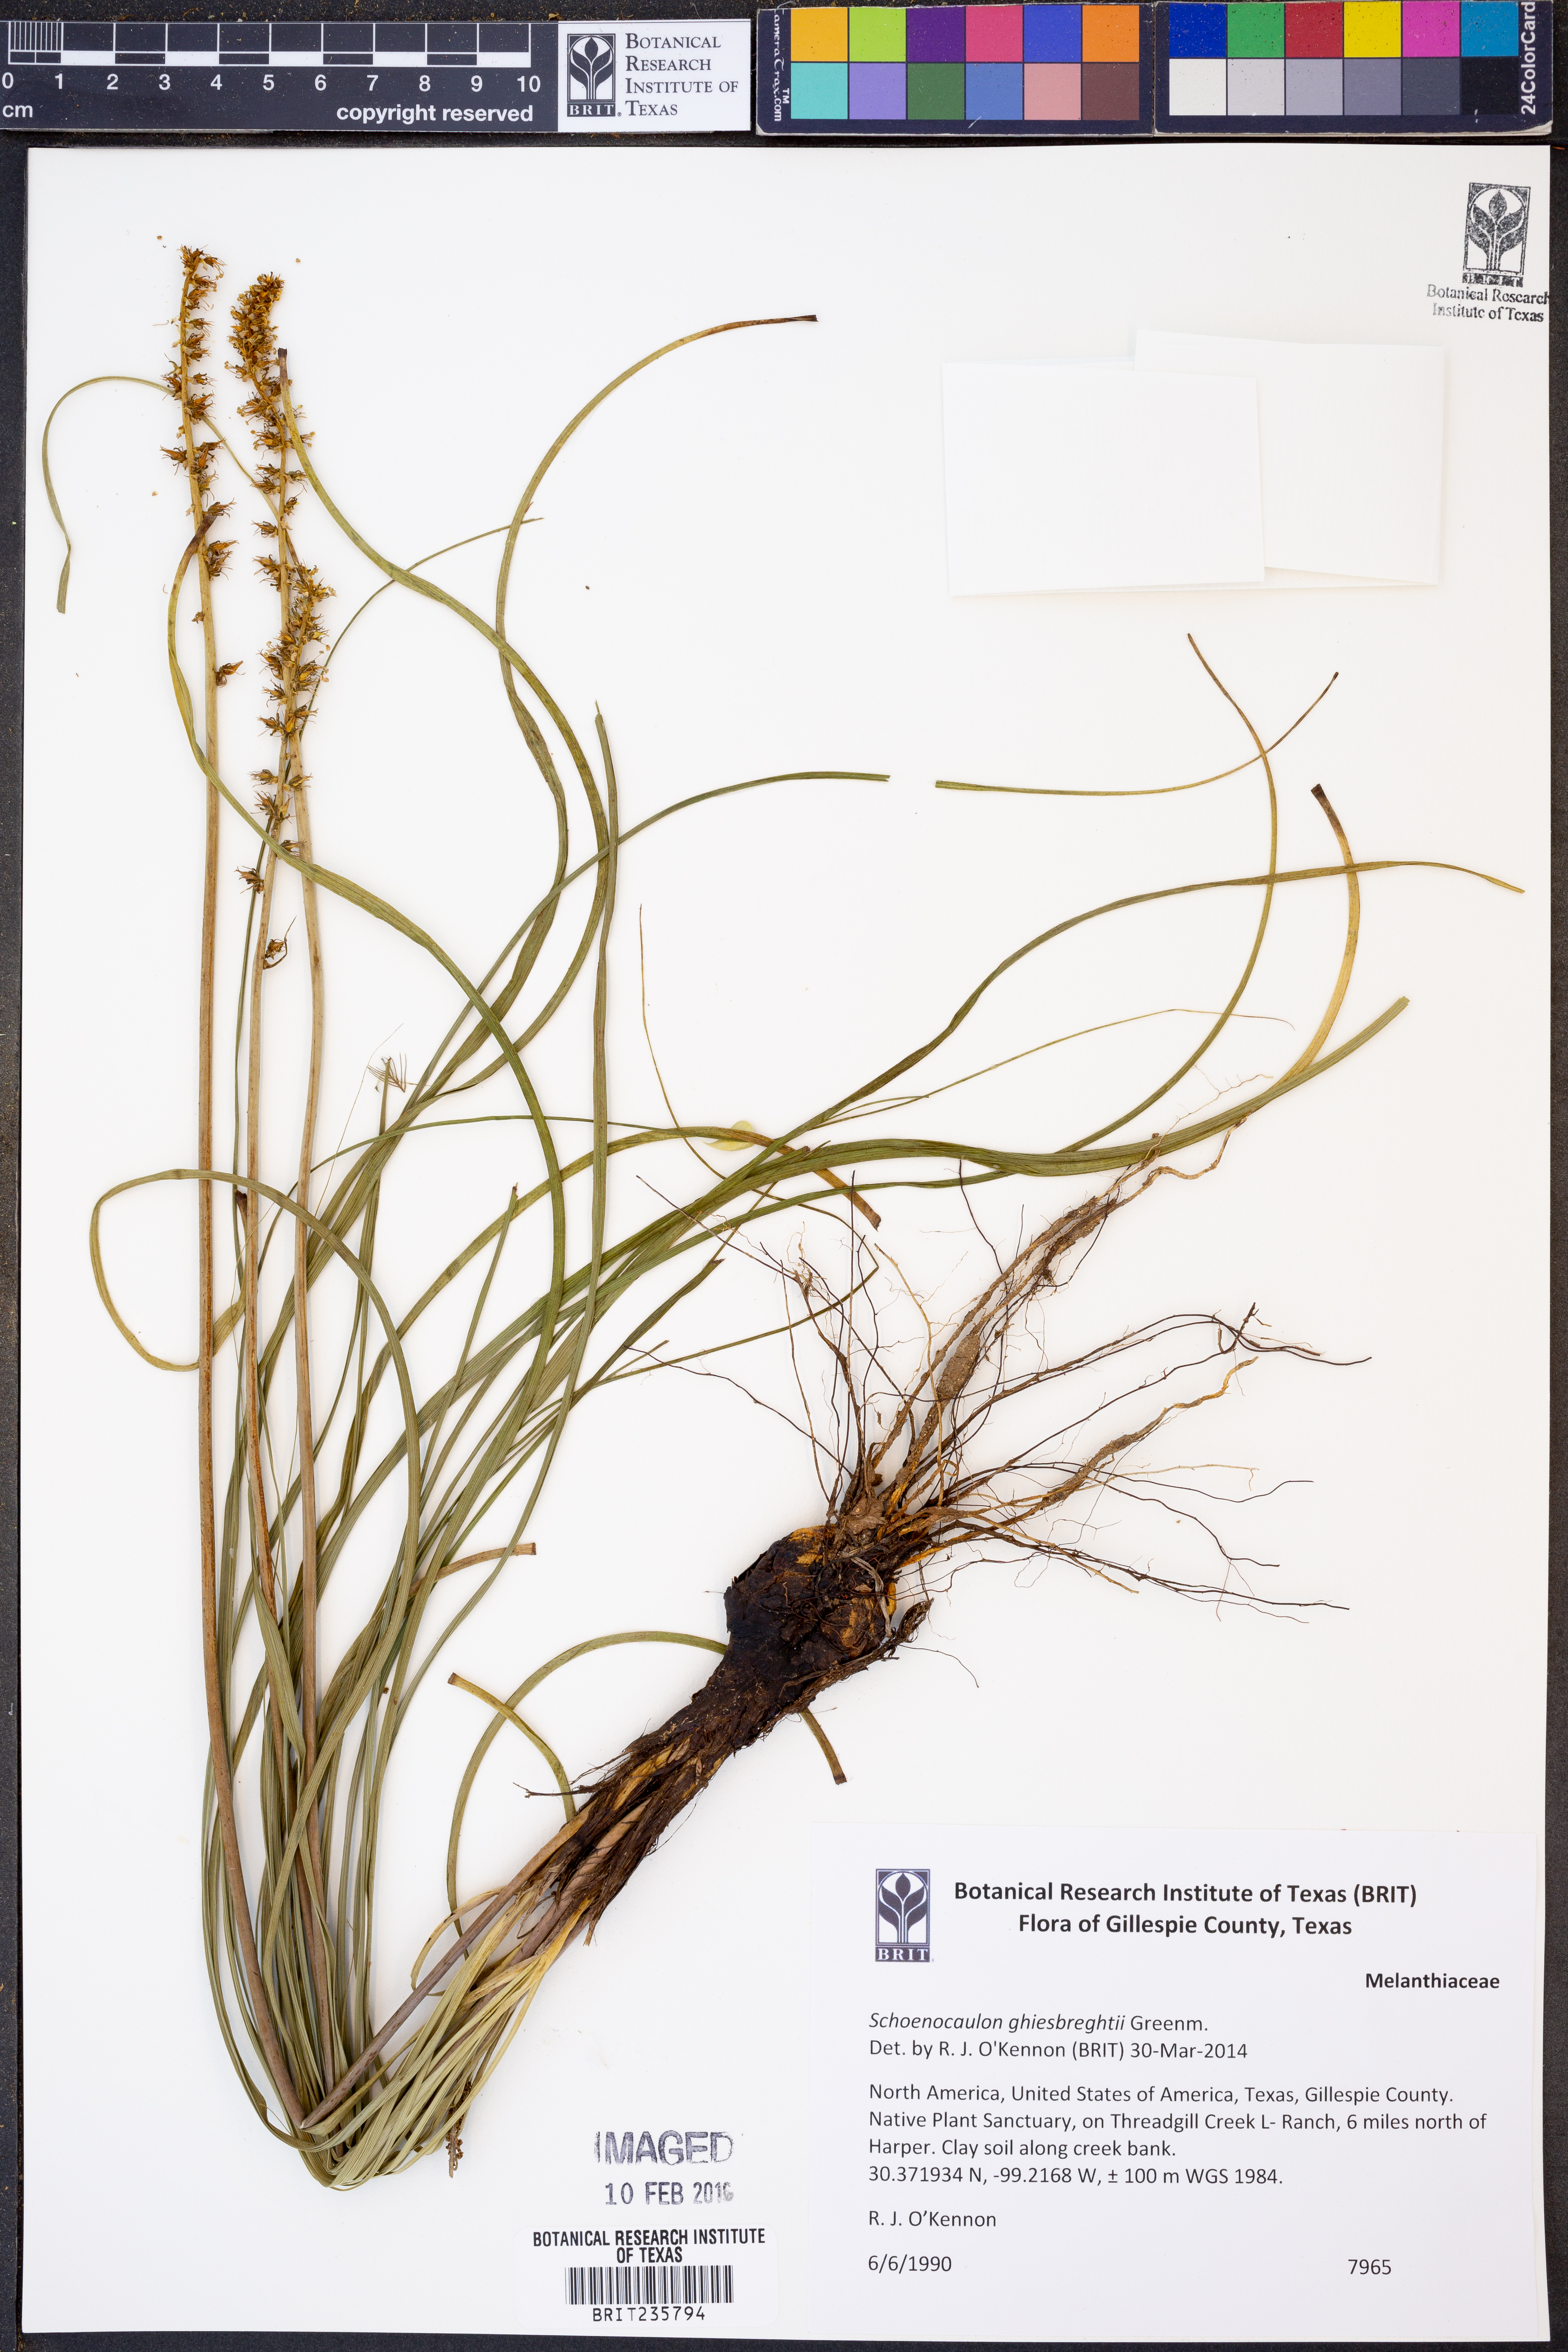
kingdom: Plantae
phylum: Tracheophyta
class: Liliopsida
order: Liliales
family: Melanthiaceae
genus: Schoenocaulon
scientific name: Schoenocaulon ghiesbreghtii
